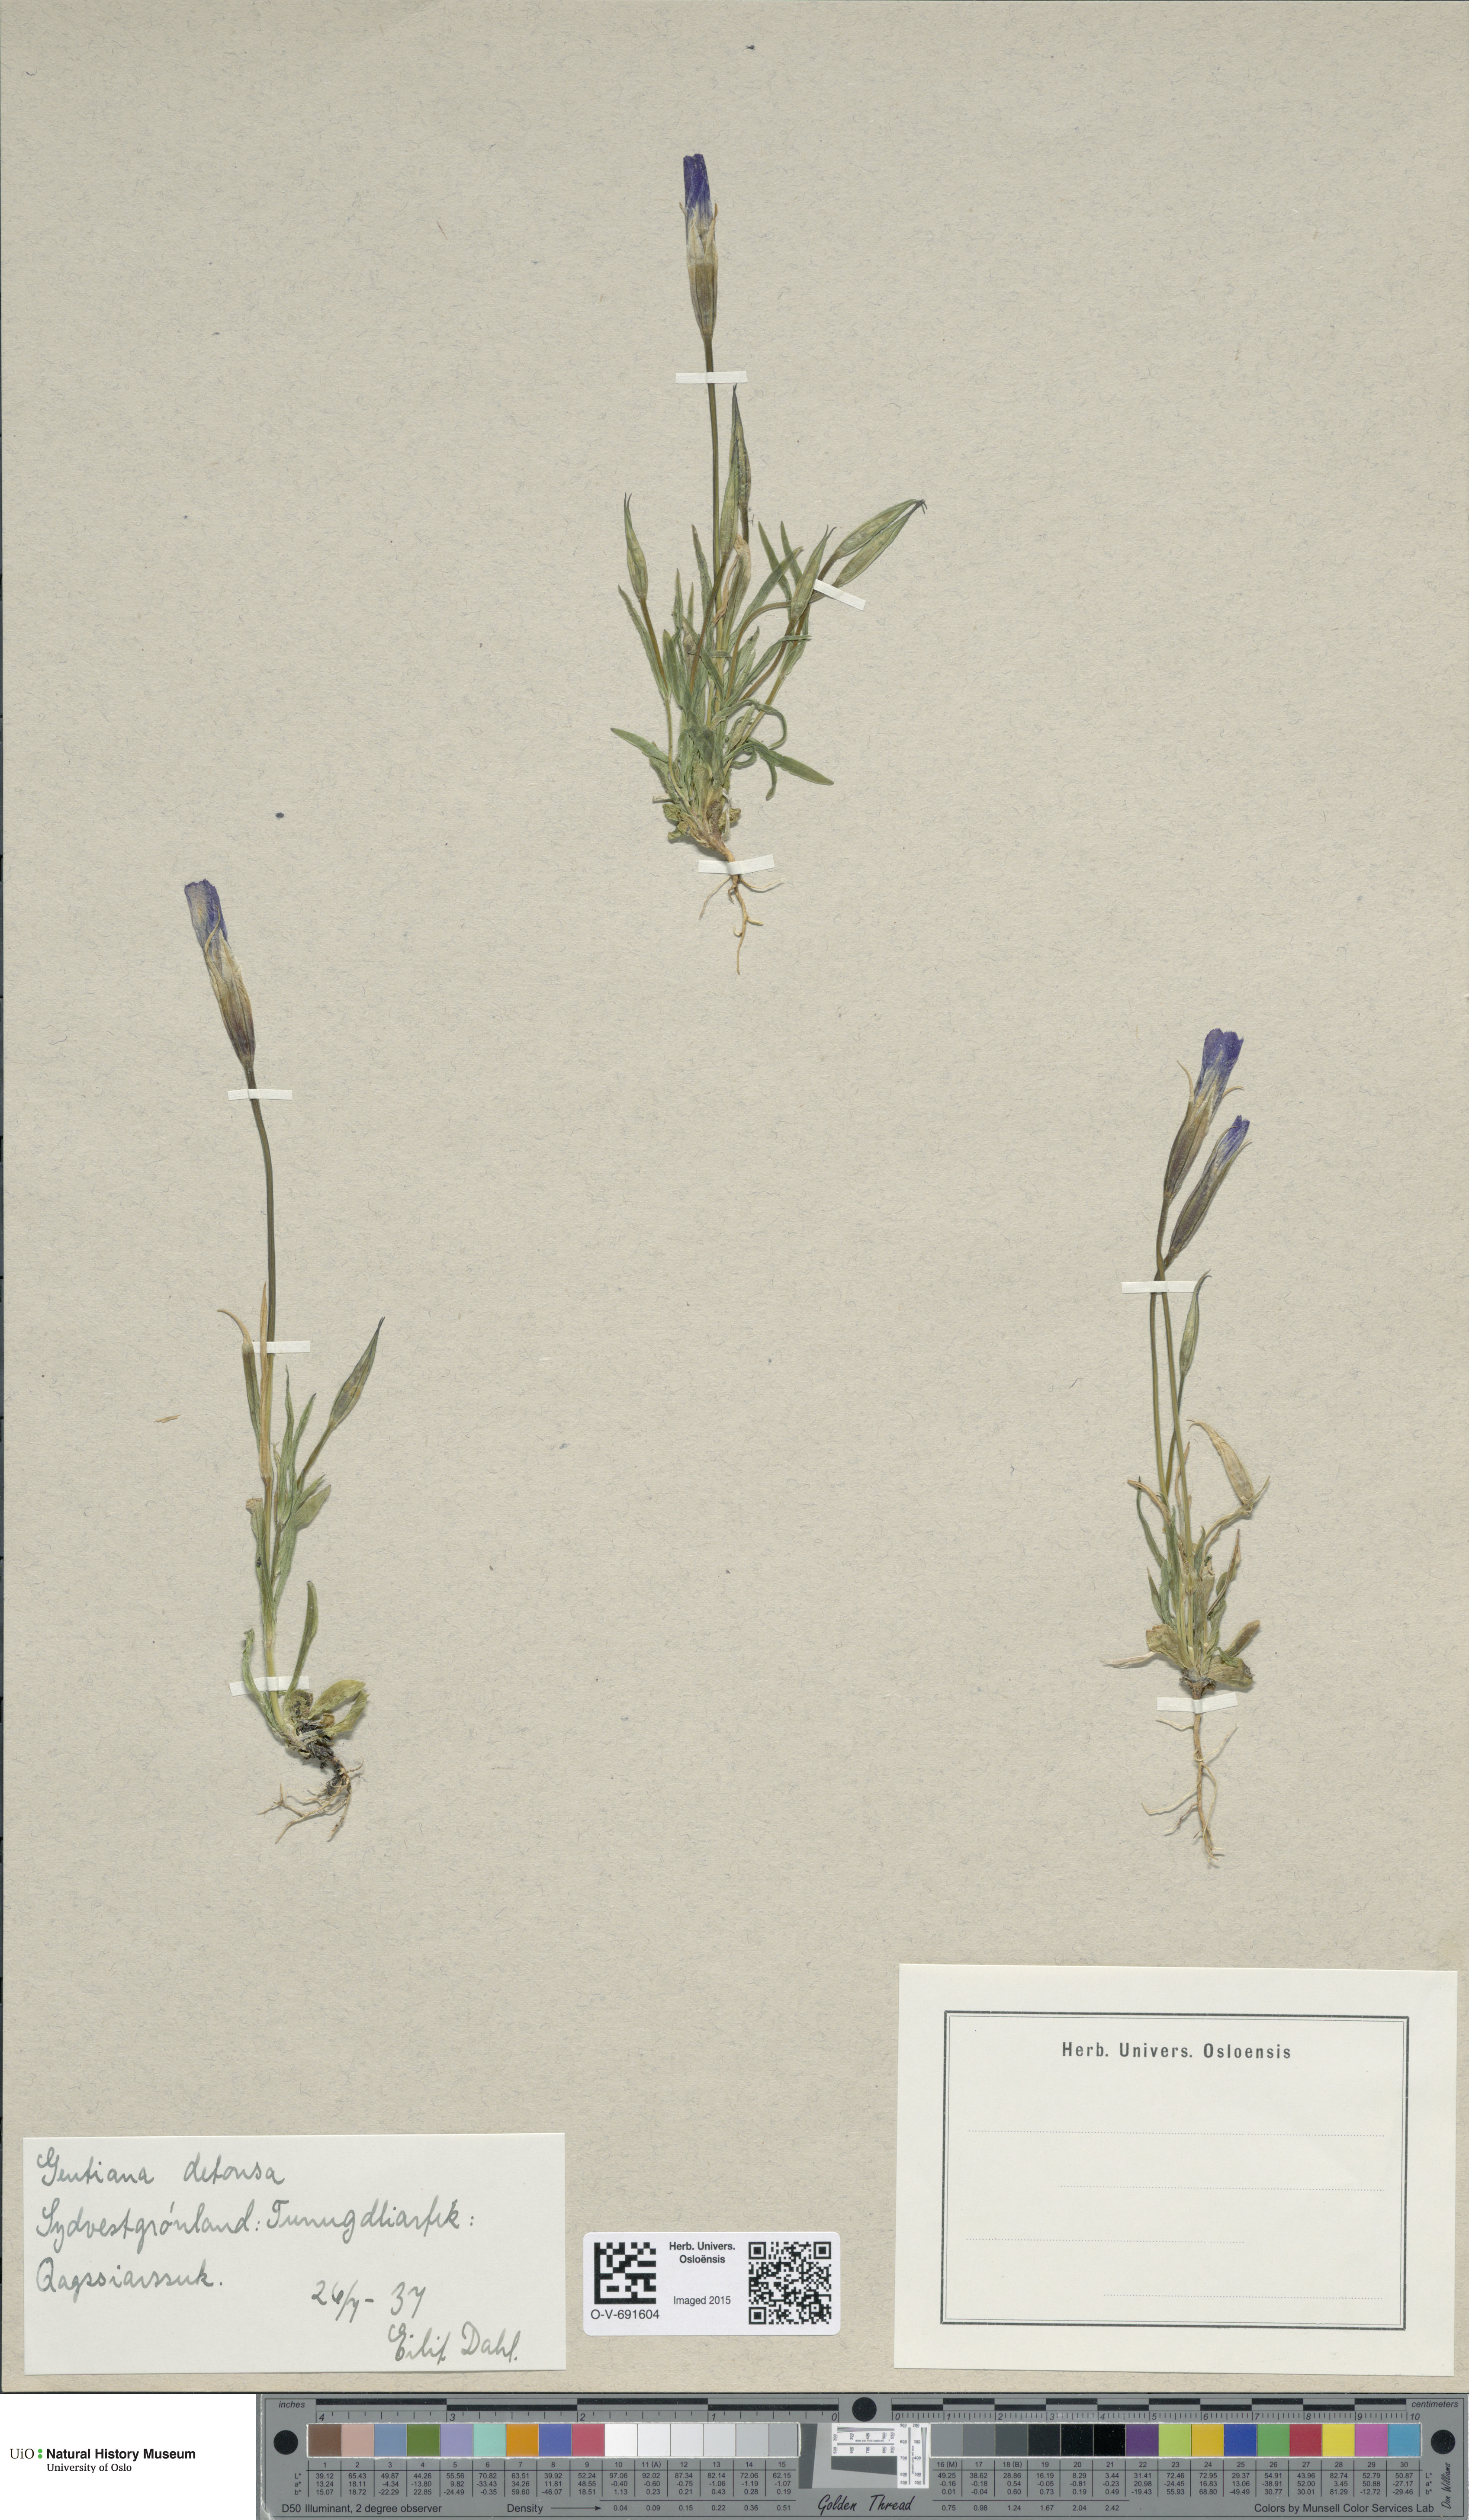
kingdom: Plantae
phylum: Tracheophyta
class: Magnoliopsida
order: Gentianales
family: Gentianaceae
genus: Gentianopsis
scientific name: Gentianopsis detonsa
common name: Fringed-gentian
